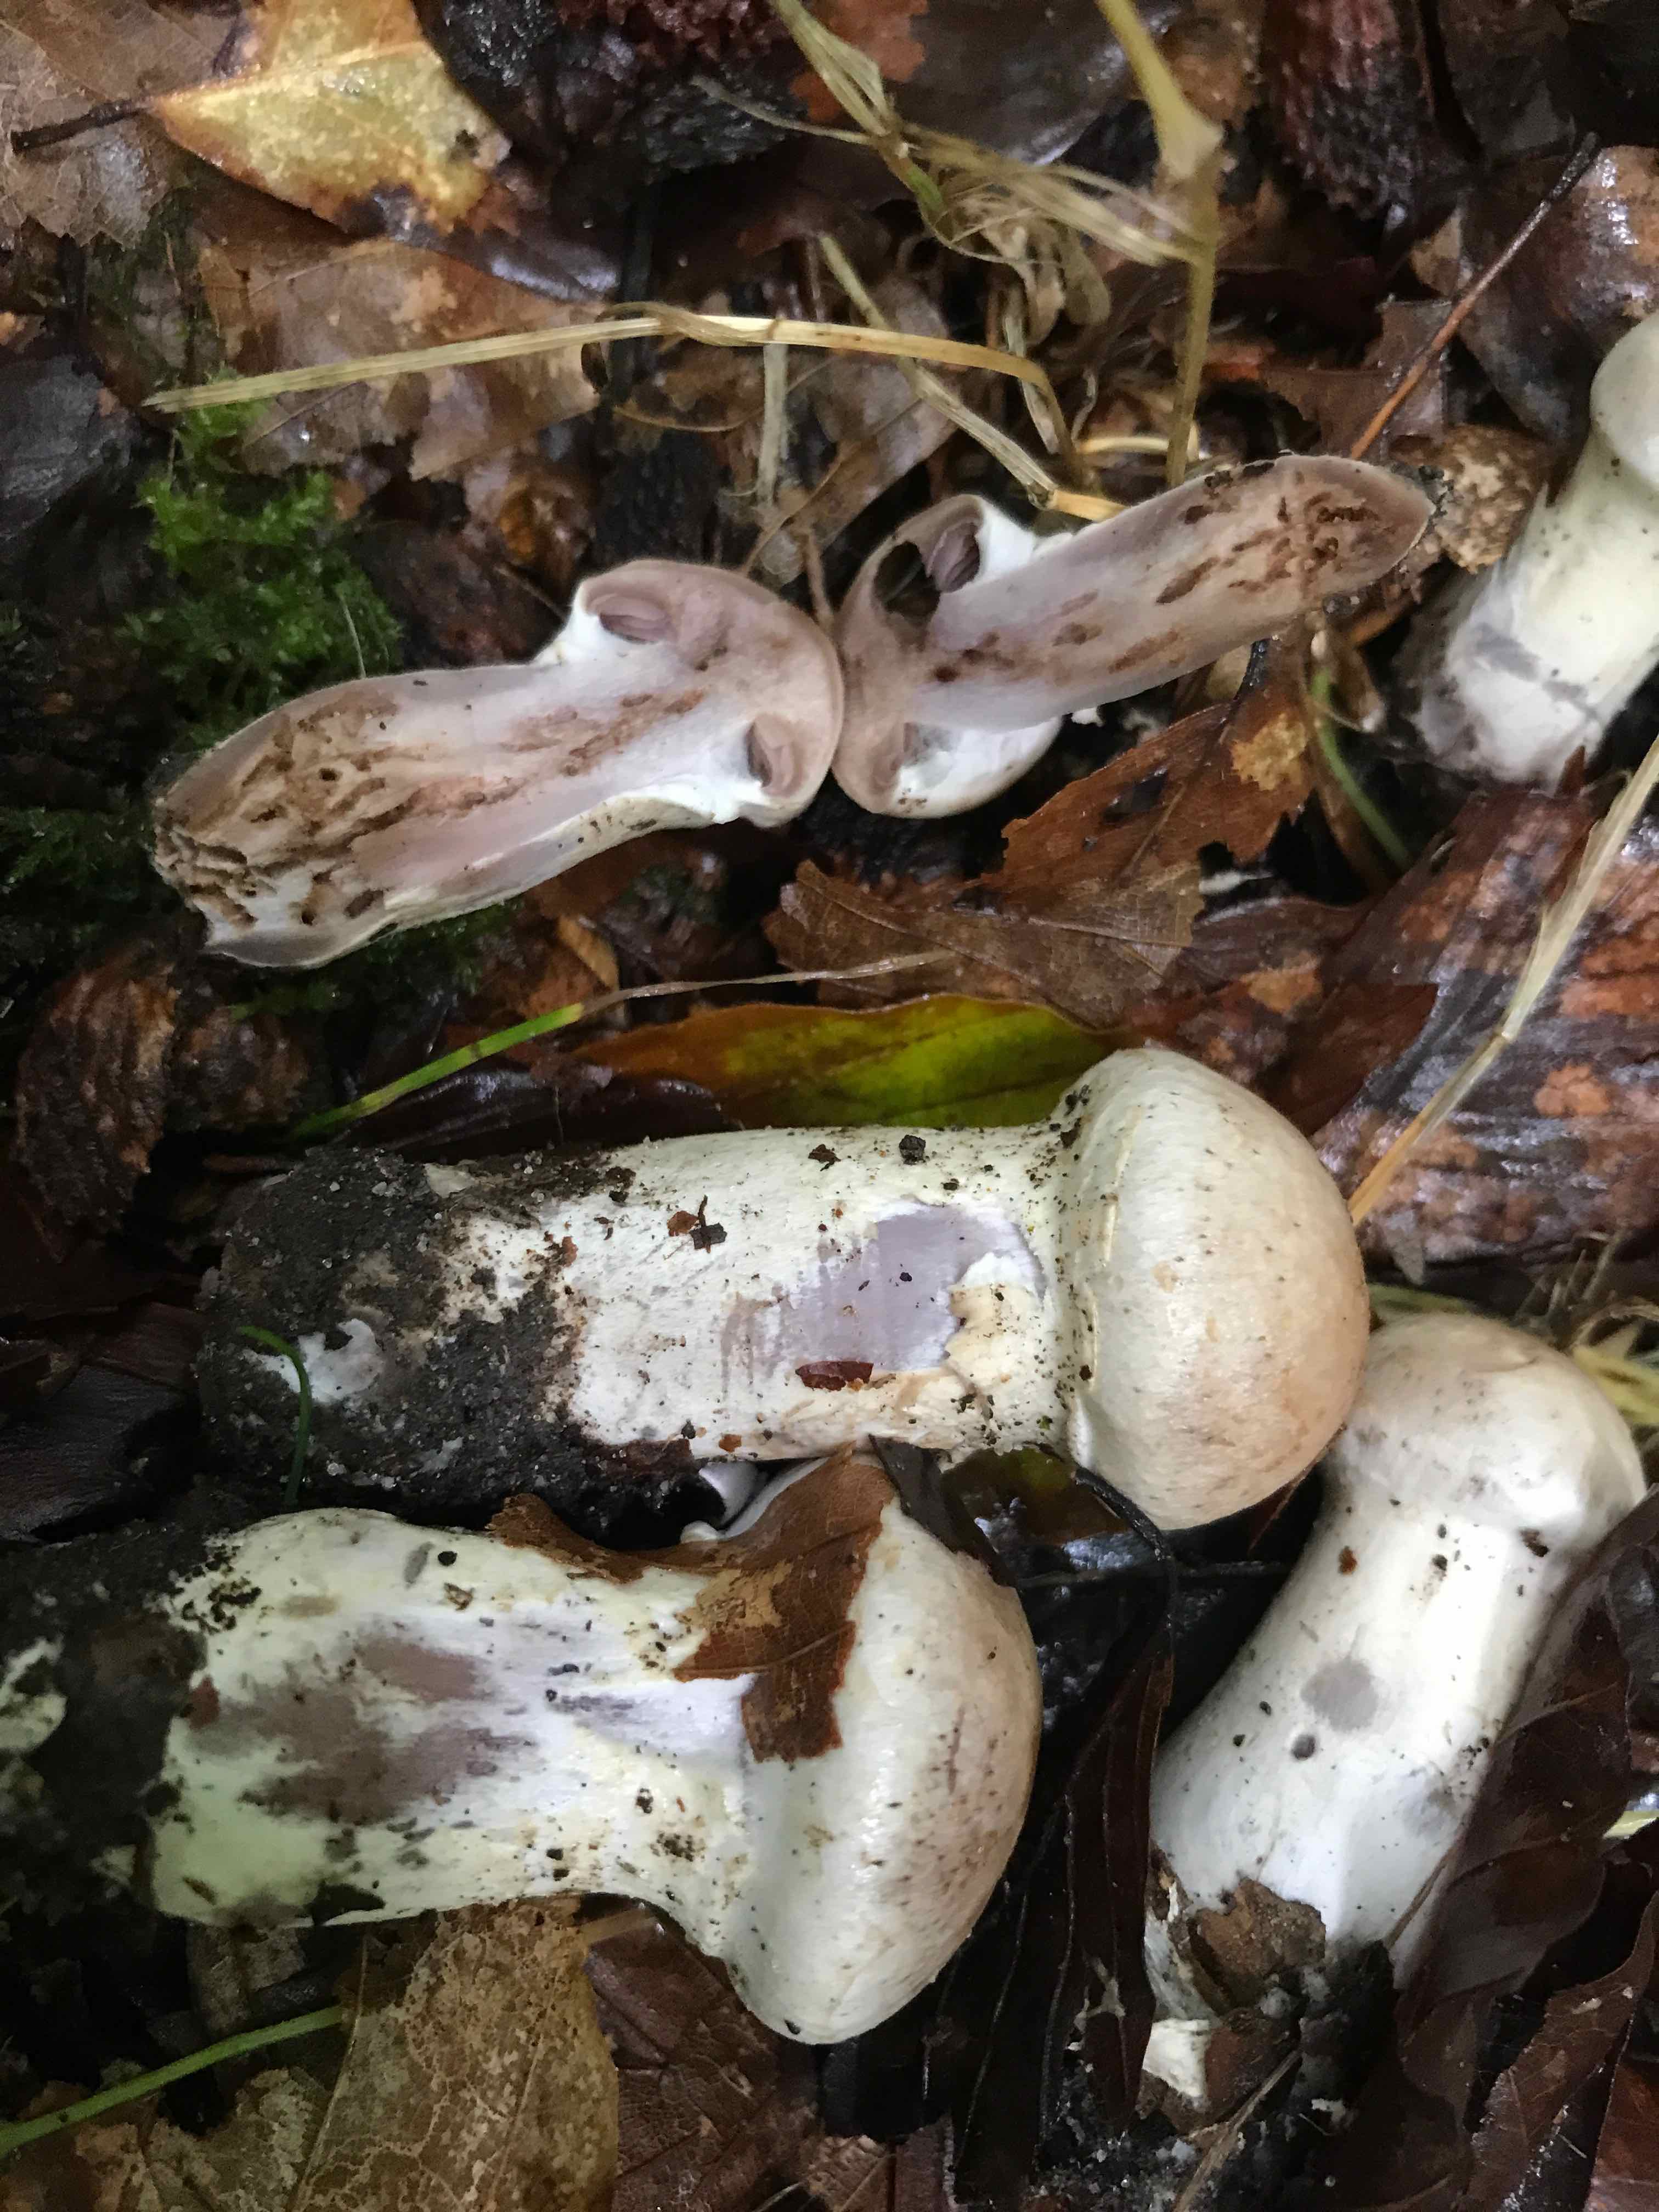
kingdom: Fungi
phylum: Basidiomycota
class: Agaricomycetes
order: Agaricales
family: Cortinariaceae
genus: Cortinarius
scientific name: Cortinarius
